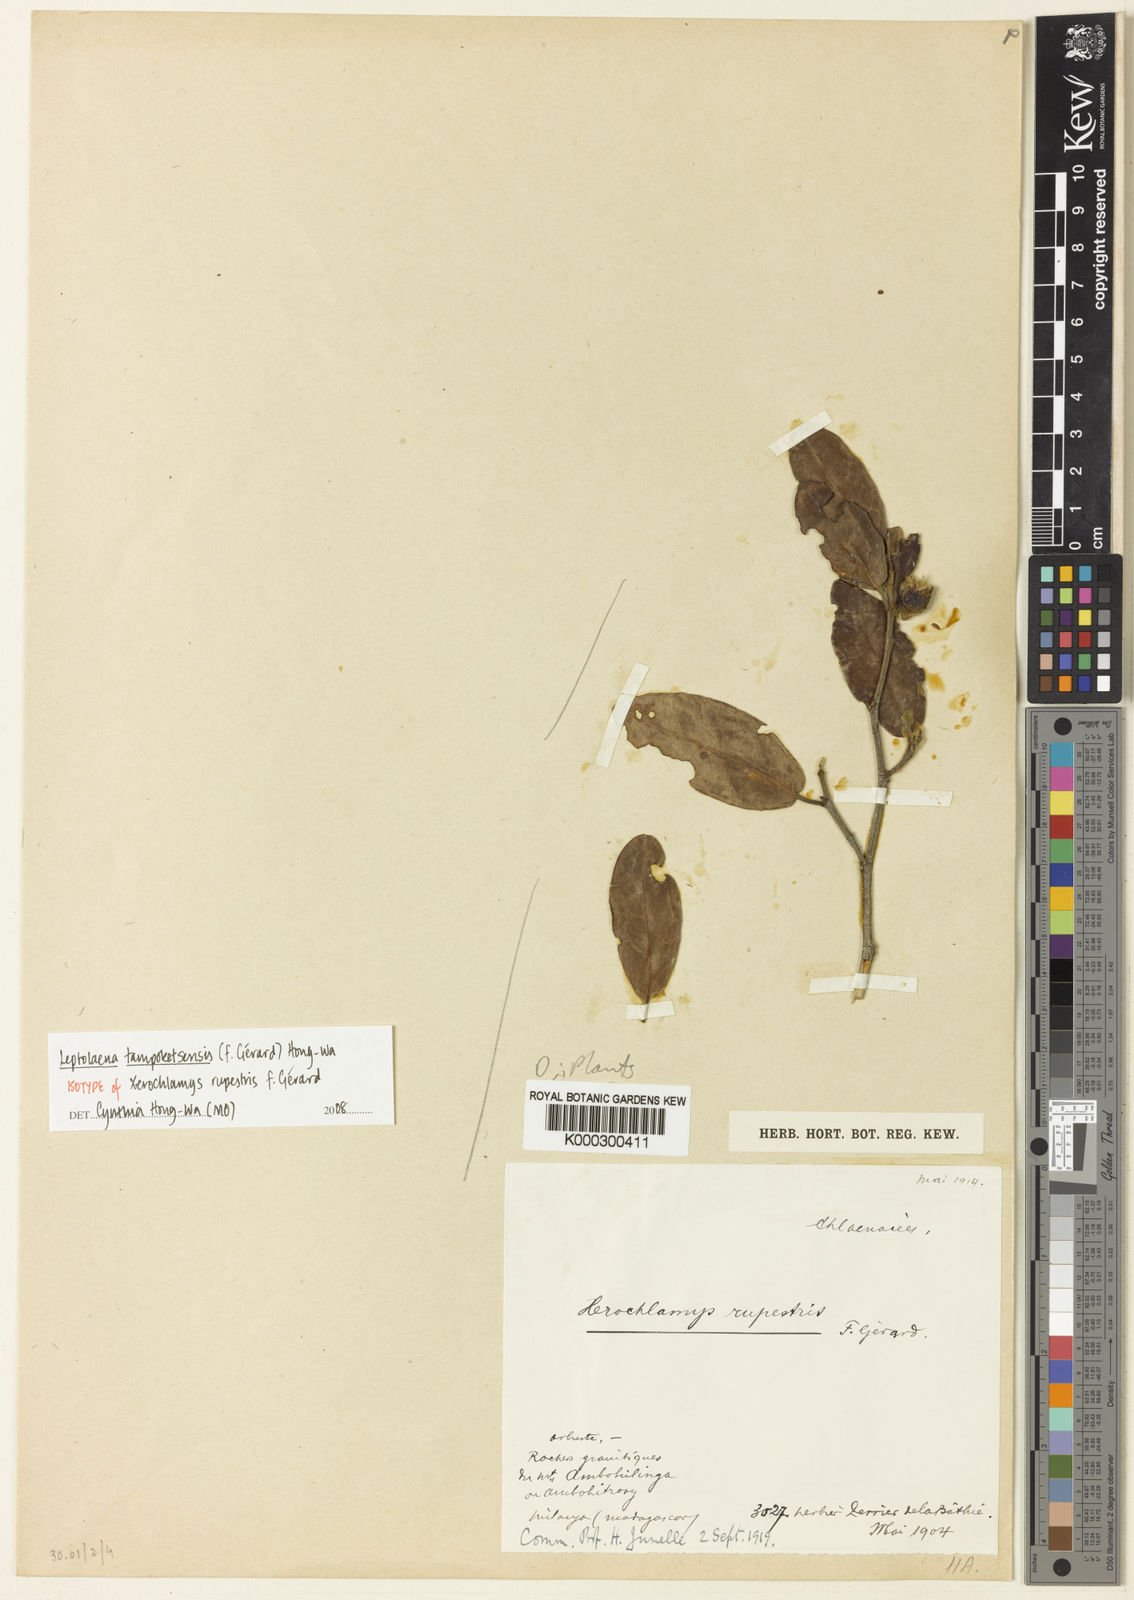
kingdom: Plantae
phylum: Tracheophyta
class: Magnoliopsida
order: Malvales
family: Sarcolaenaceae
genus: Xerochlamys
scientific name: Xerochlamys diospyroidea
